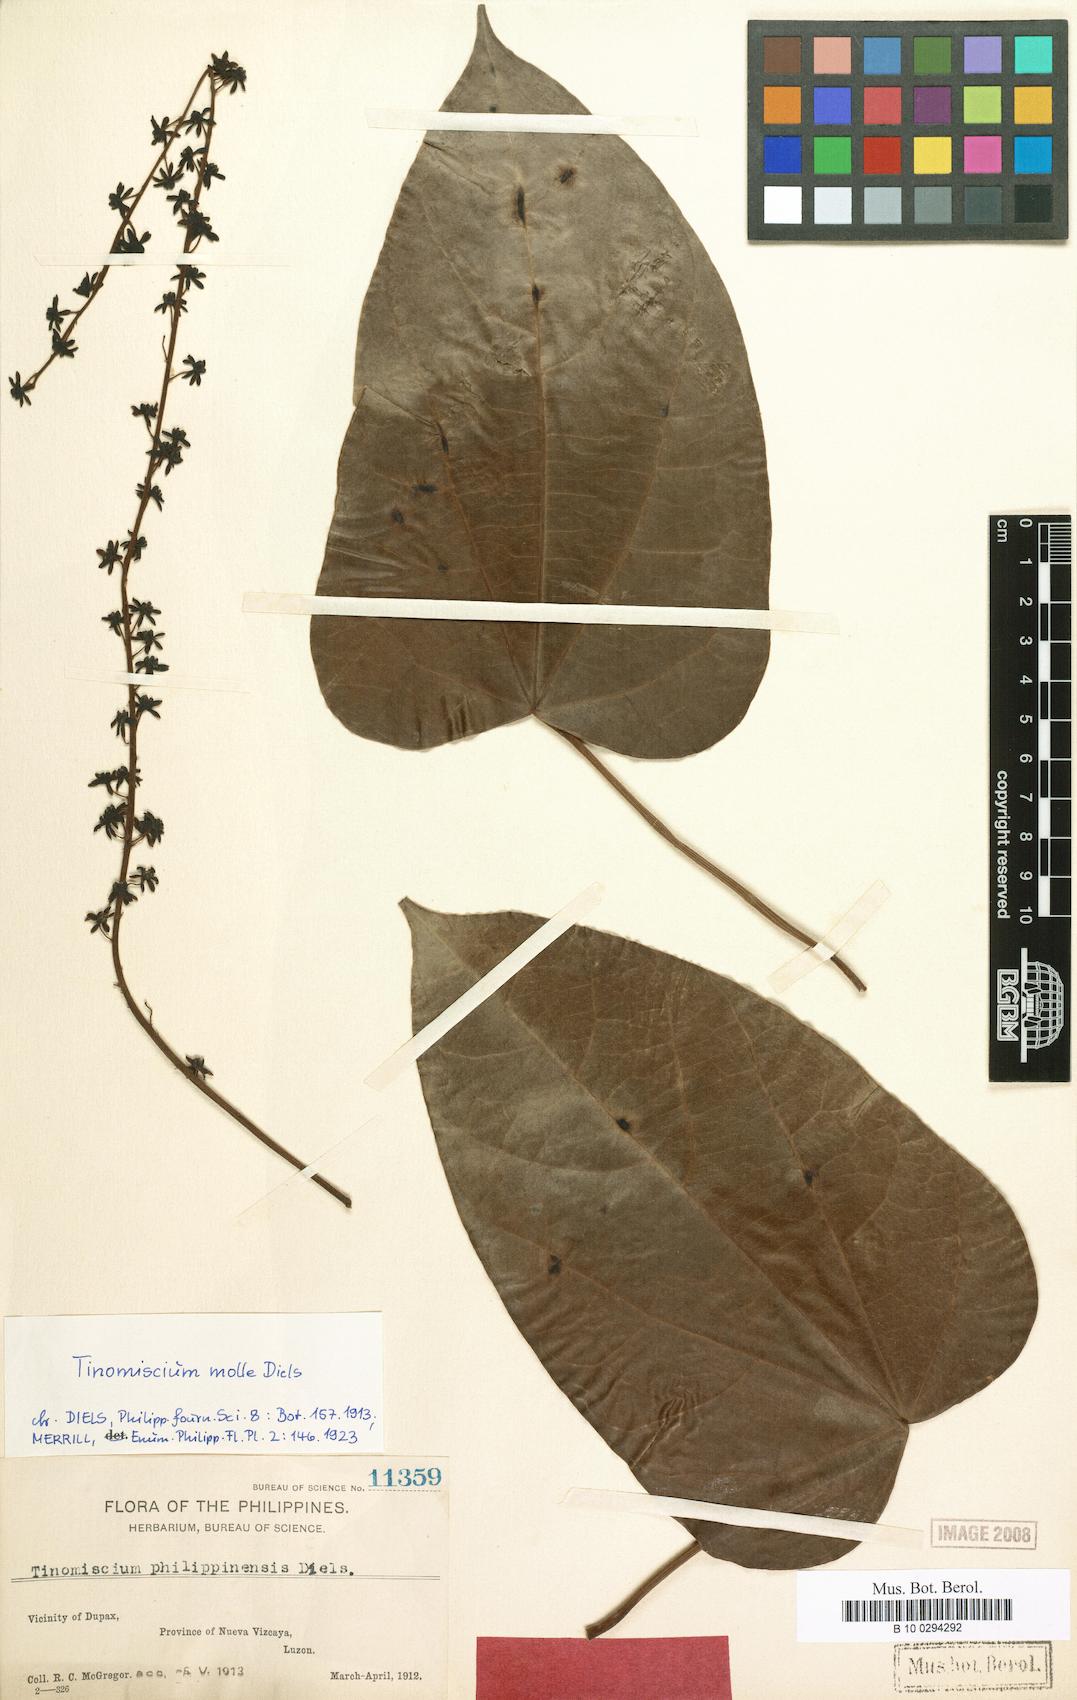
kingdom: Plantae
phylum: Tracheophyta
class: Magnoliopsida
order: Ranunculales
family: Menispermaceae
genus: Tinomiscium
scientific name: Tinomiscium petiolare
